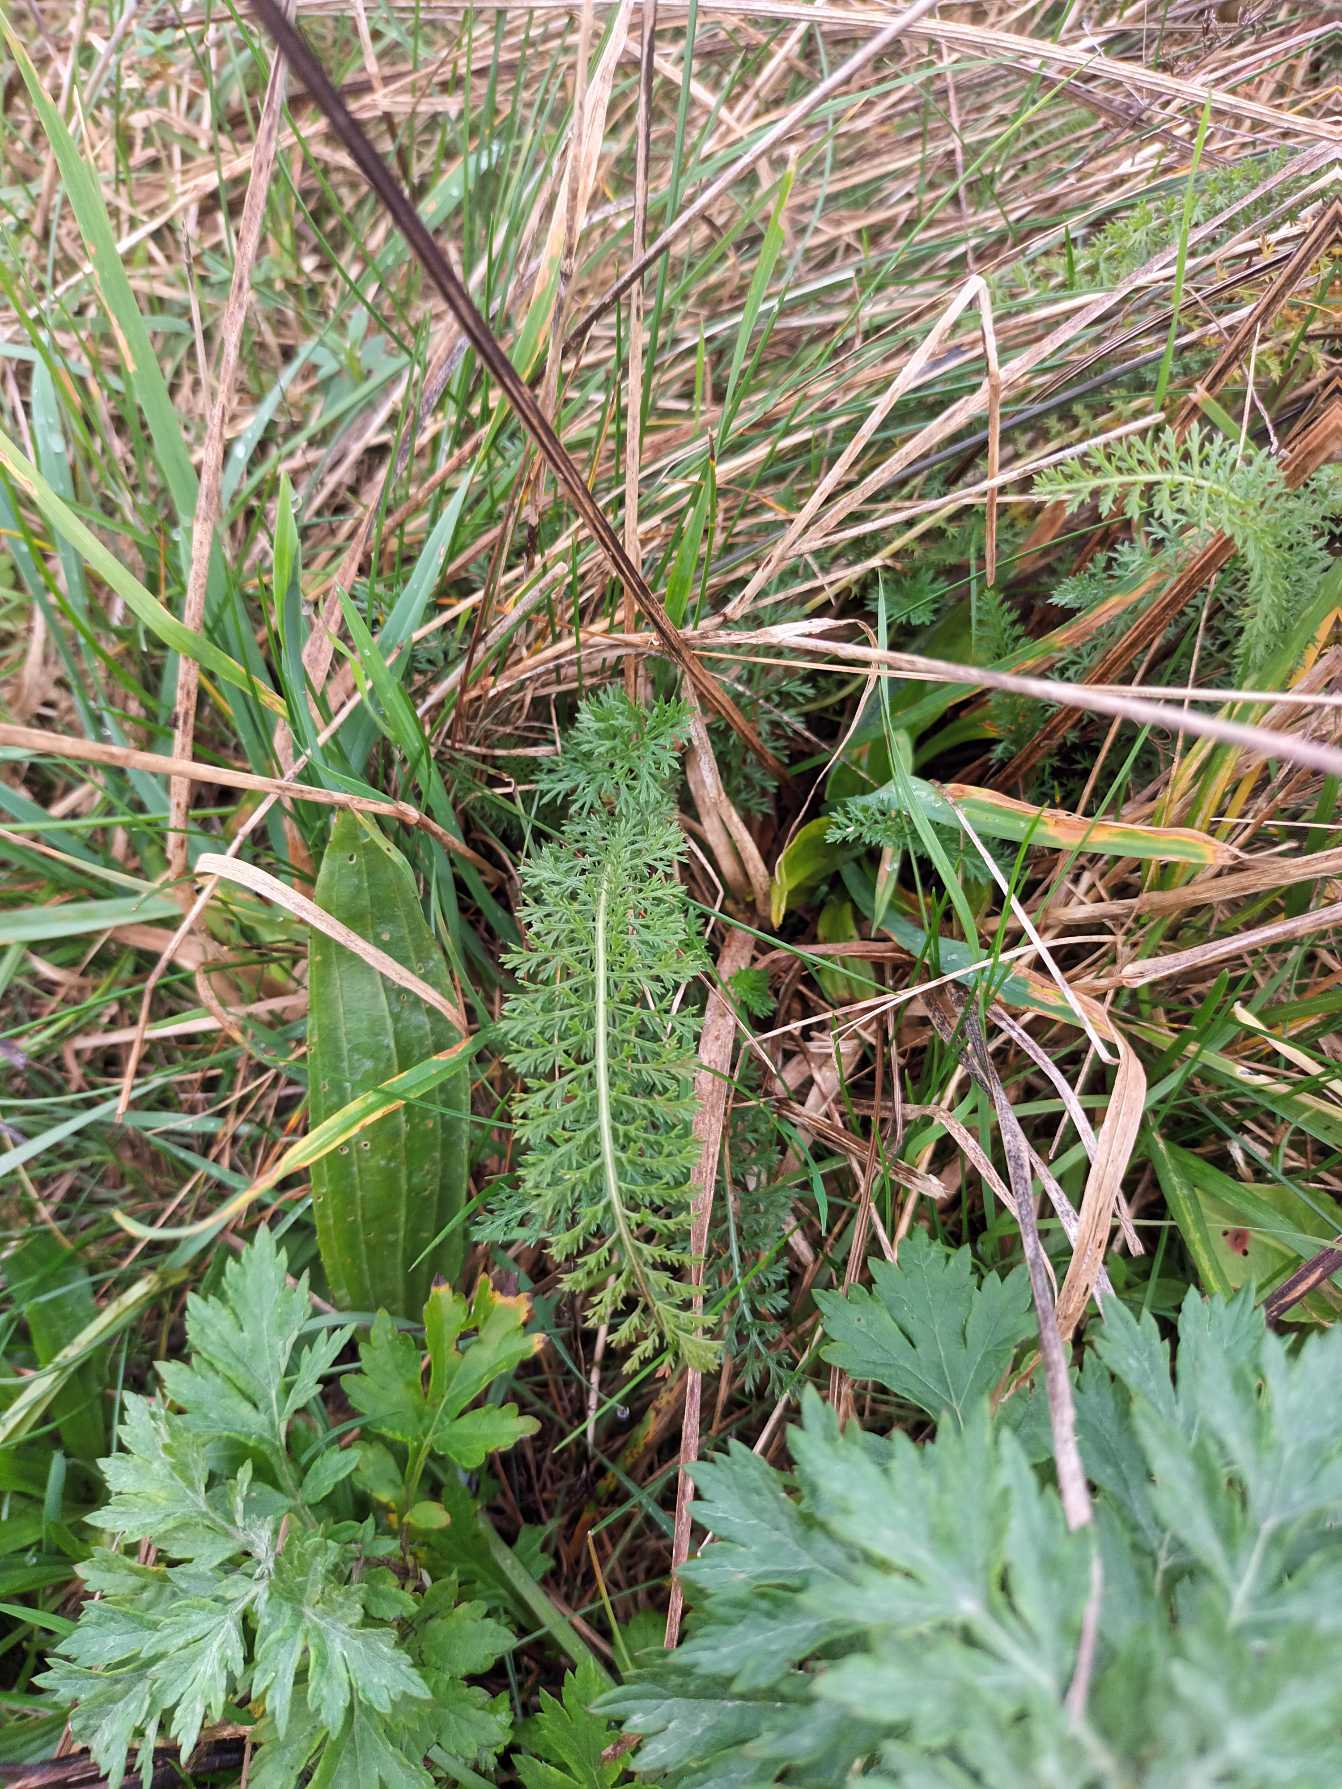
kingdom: Plantae
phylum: Tracheophyta
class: Magnoliopsida
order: Asterales
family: Asteraceae
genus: Achillea
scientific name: Achillea millefolium
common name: Almindelig røllike
